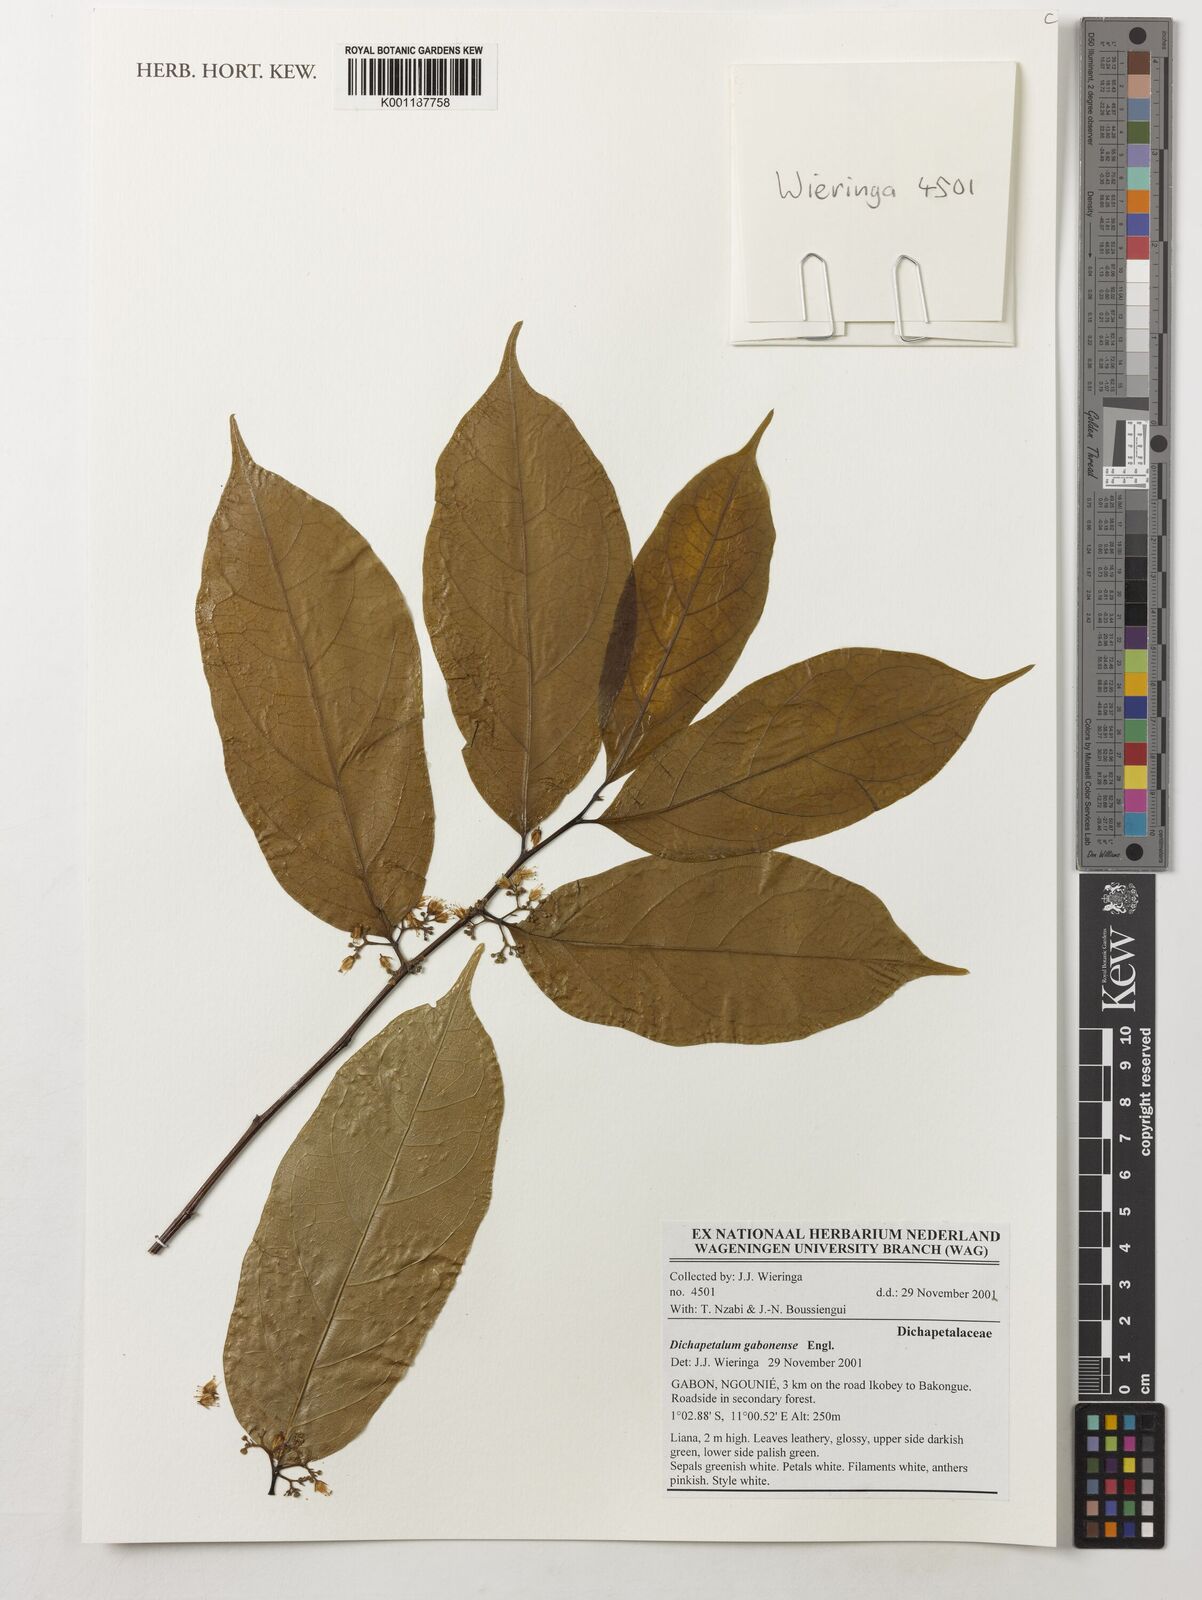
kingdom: Plantae
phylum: Tracheophyta
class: Magnoliopsida
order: Malpighiales
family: Dichapetalaceae
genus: Dichapetalum
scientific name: Dichapetalum gabonense
